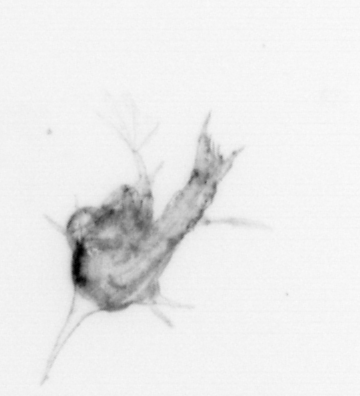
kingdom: Animalia
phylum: Arthropoda
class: Malacostraca
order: Decapoda
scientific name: Decapoda
